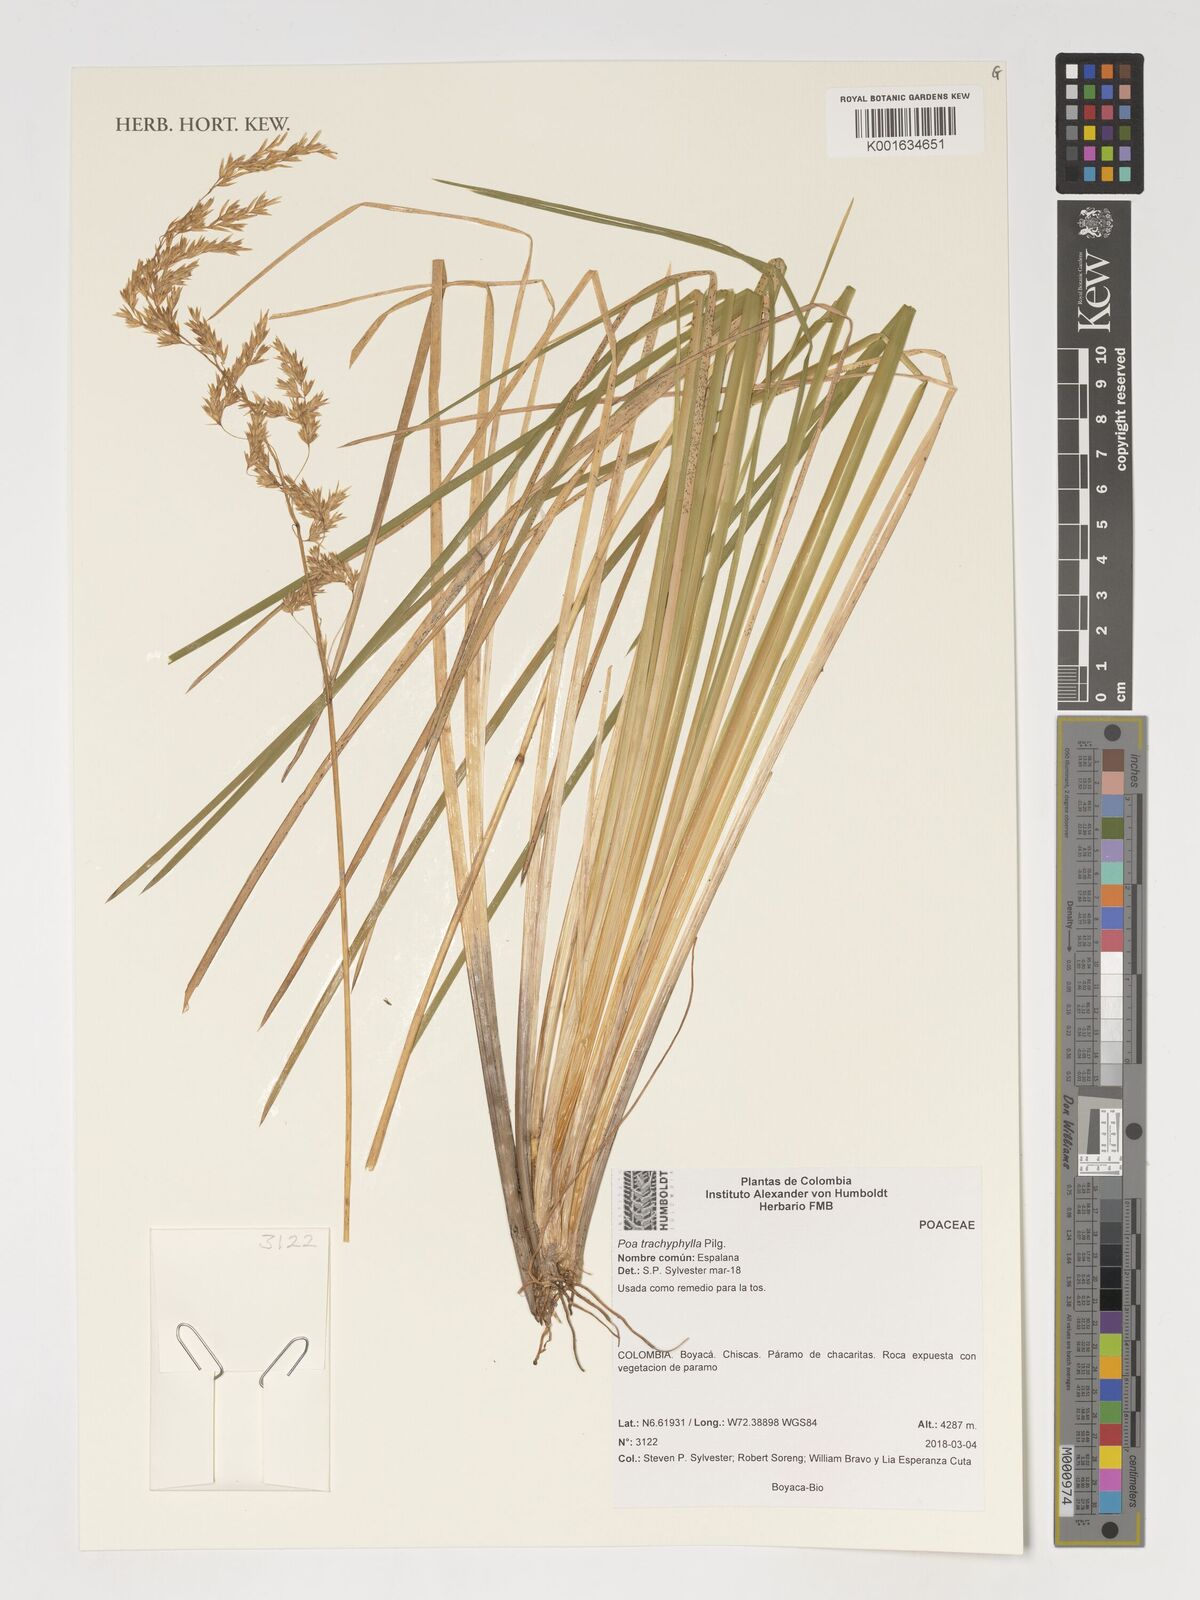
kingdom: Plantae
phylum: Tracheophyta
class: Liliopsida
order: Poales
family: Poaceae
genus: Poa
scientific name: Poa trachyphylla
